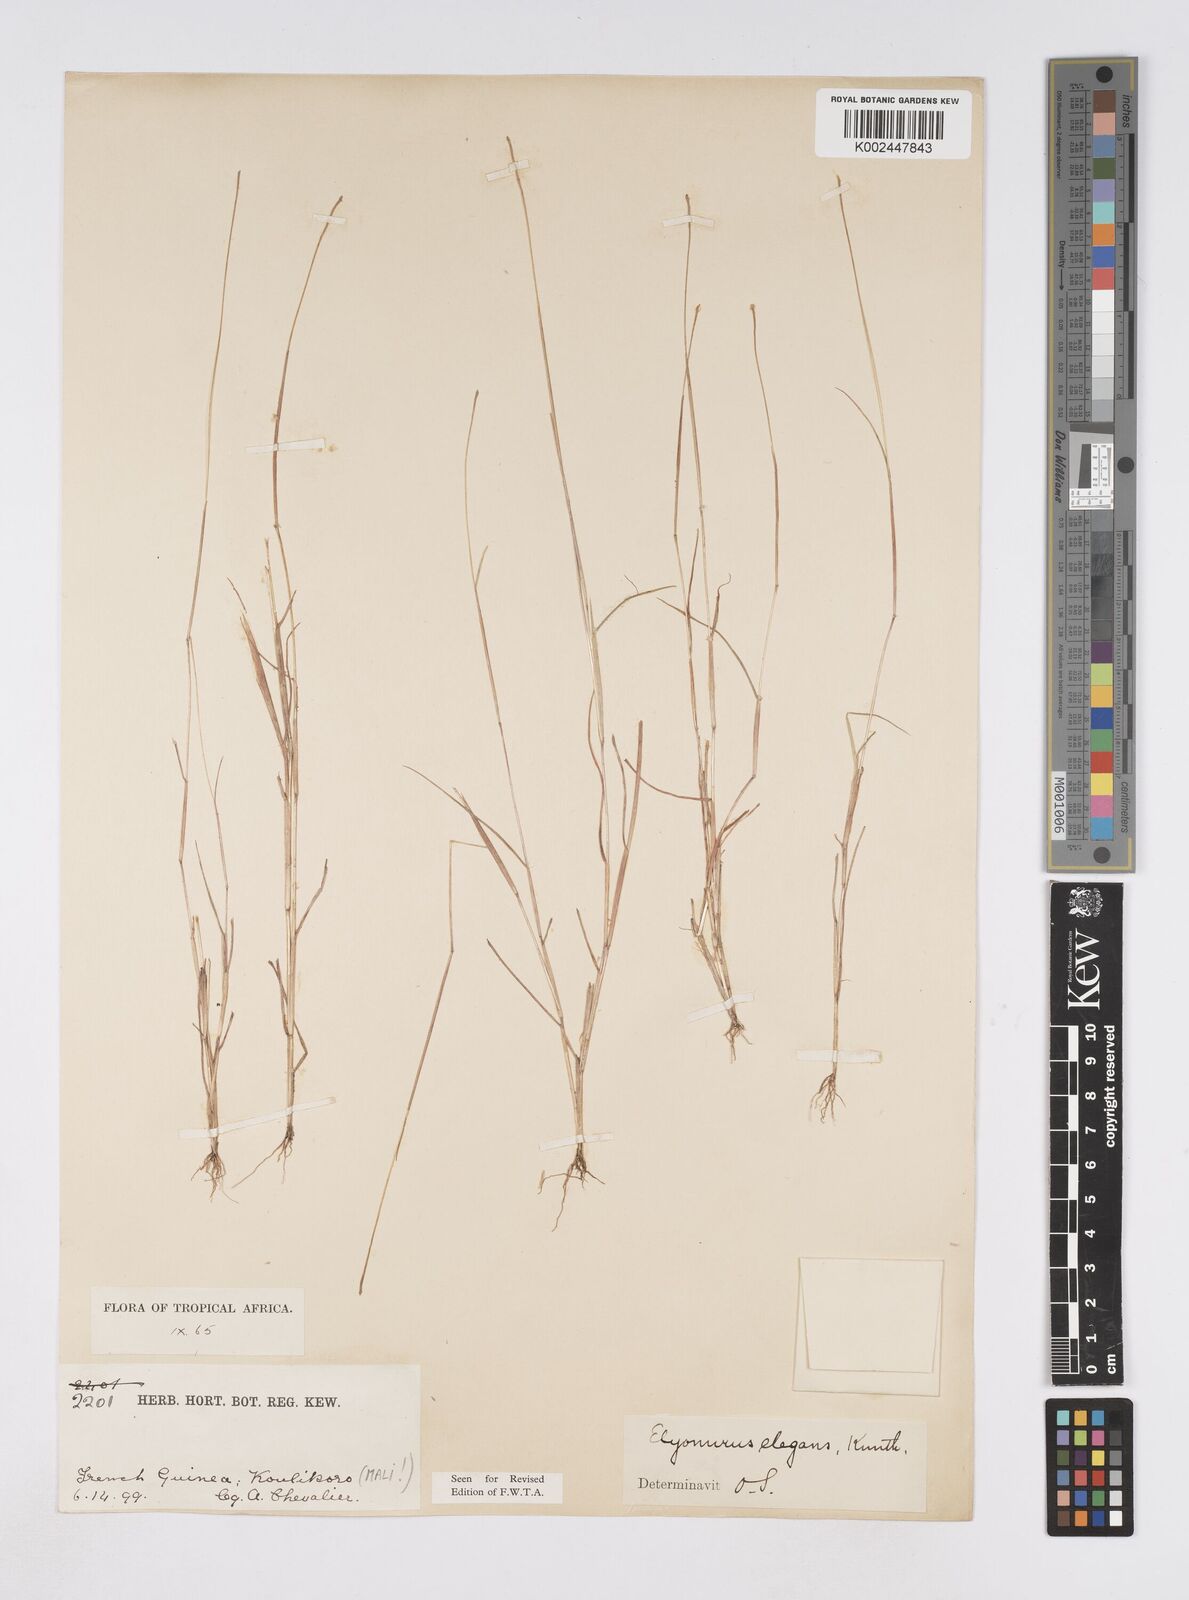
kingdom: Plantae
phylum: Tracheophyta
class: Liliopsida
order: Poales
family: Poaceae
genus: Elionurus
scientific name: Elionurus elegans
